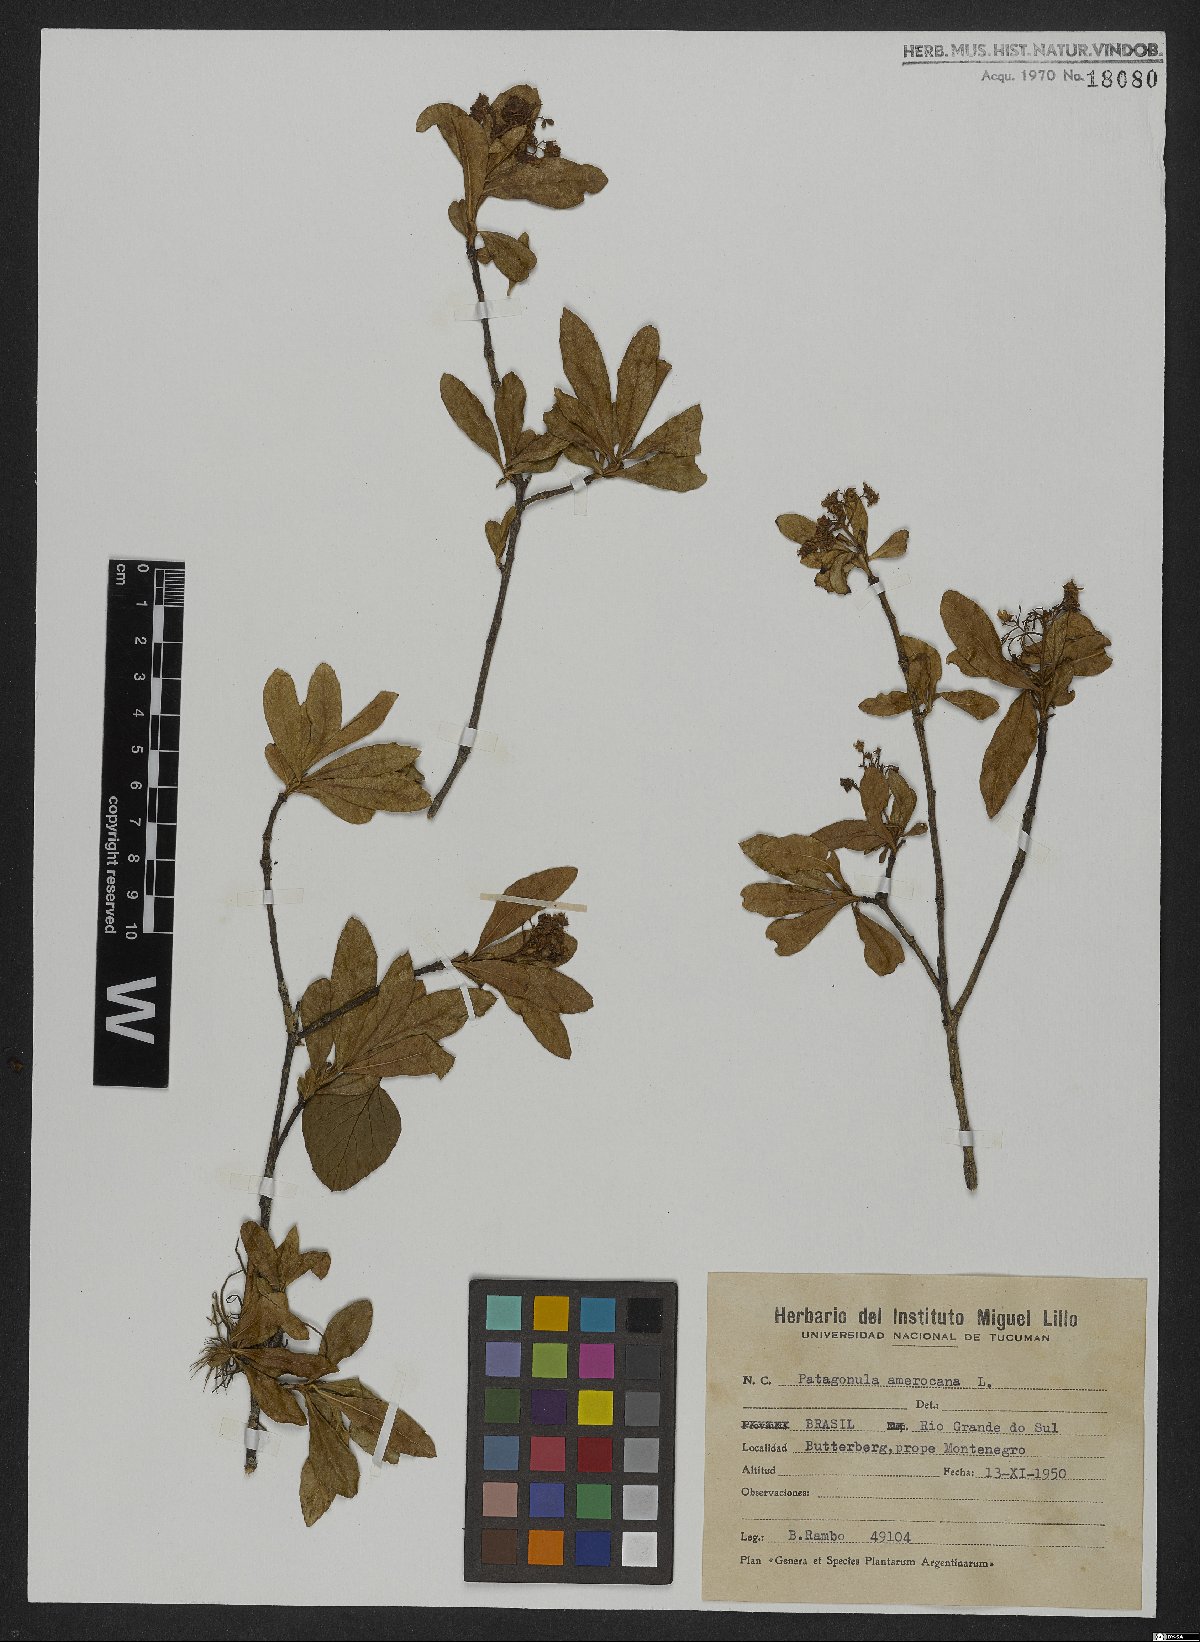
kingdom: Plantae
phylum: Tracheophyta
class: Magnoliopsida
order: Boraginales
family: Cordiaceae
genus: Cordia
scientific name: Cordia americana
